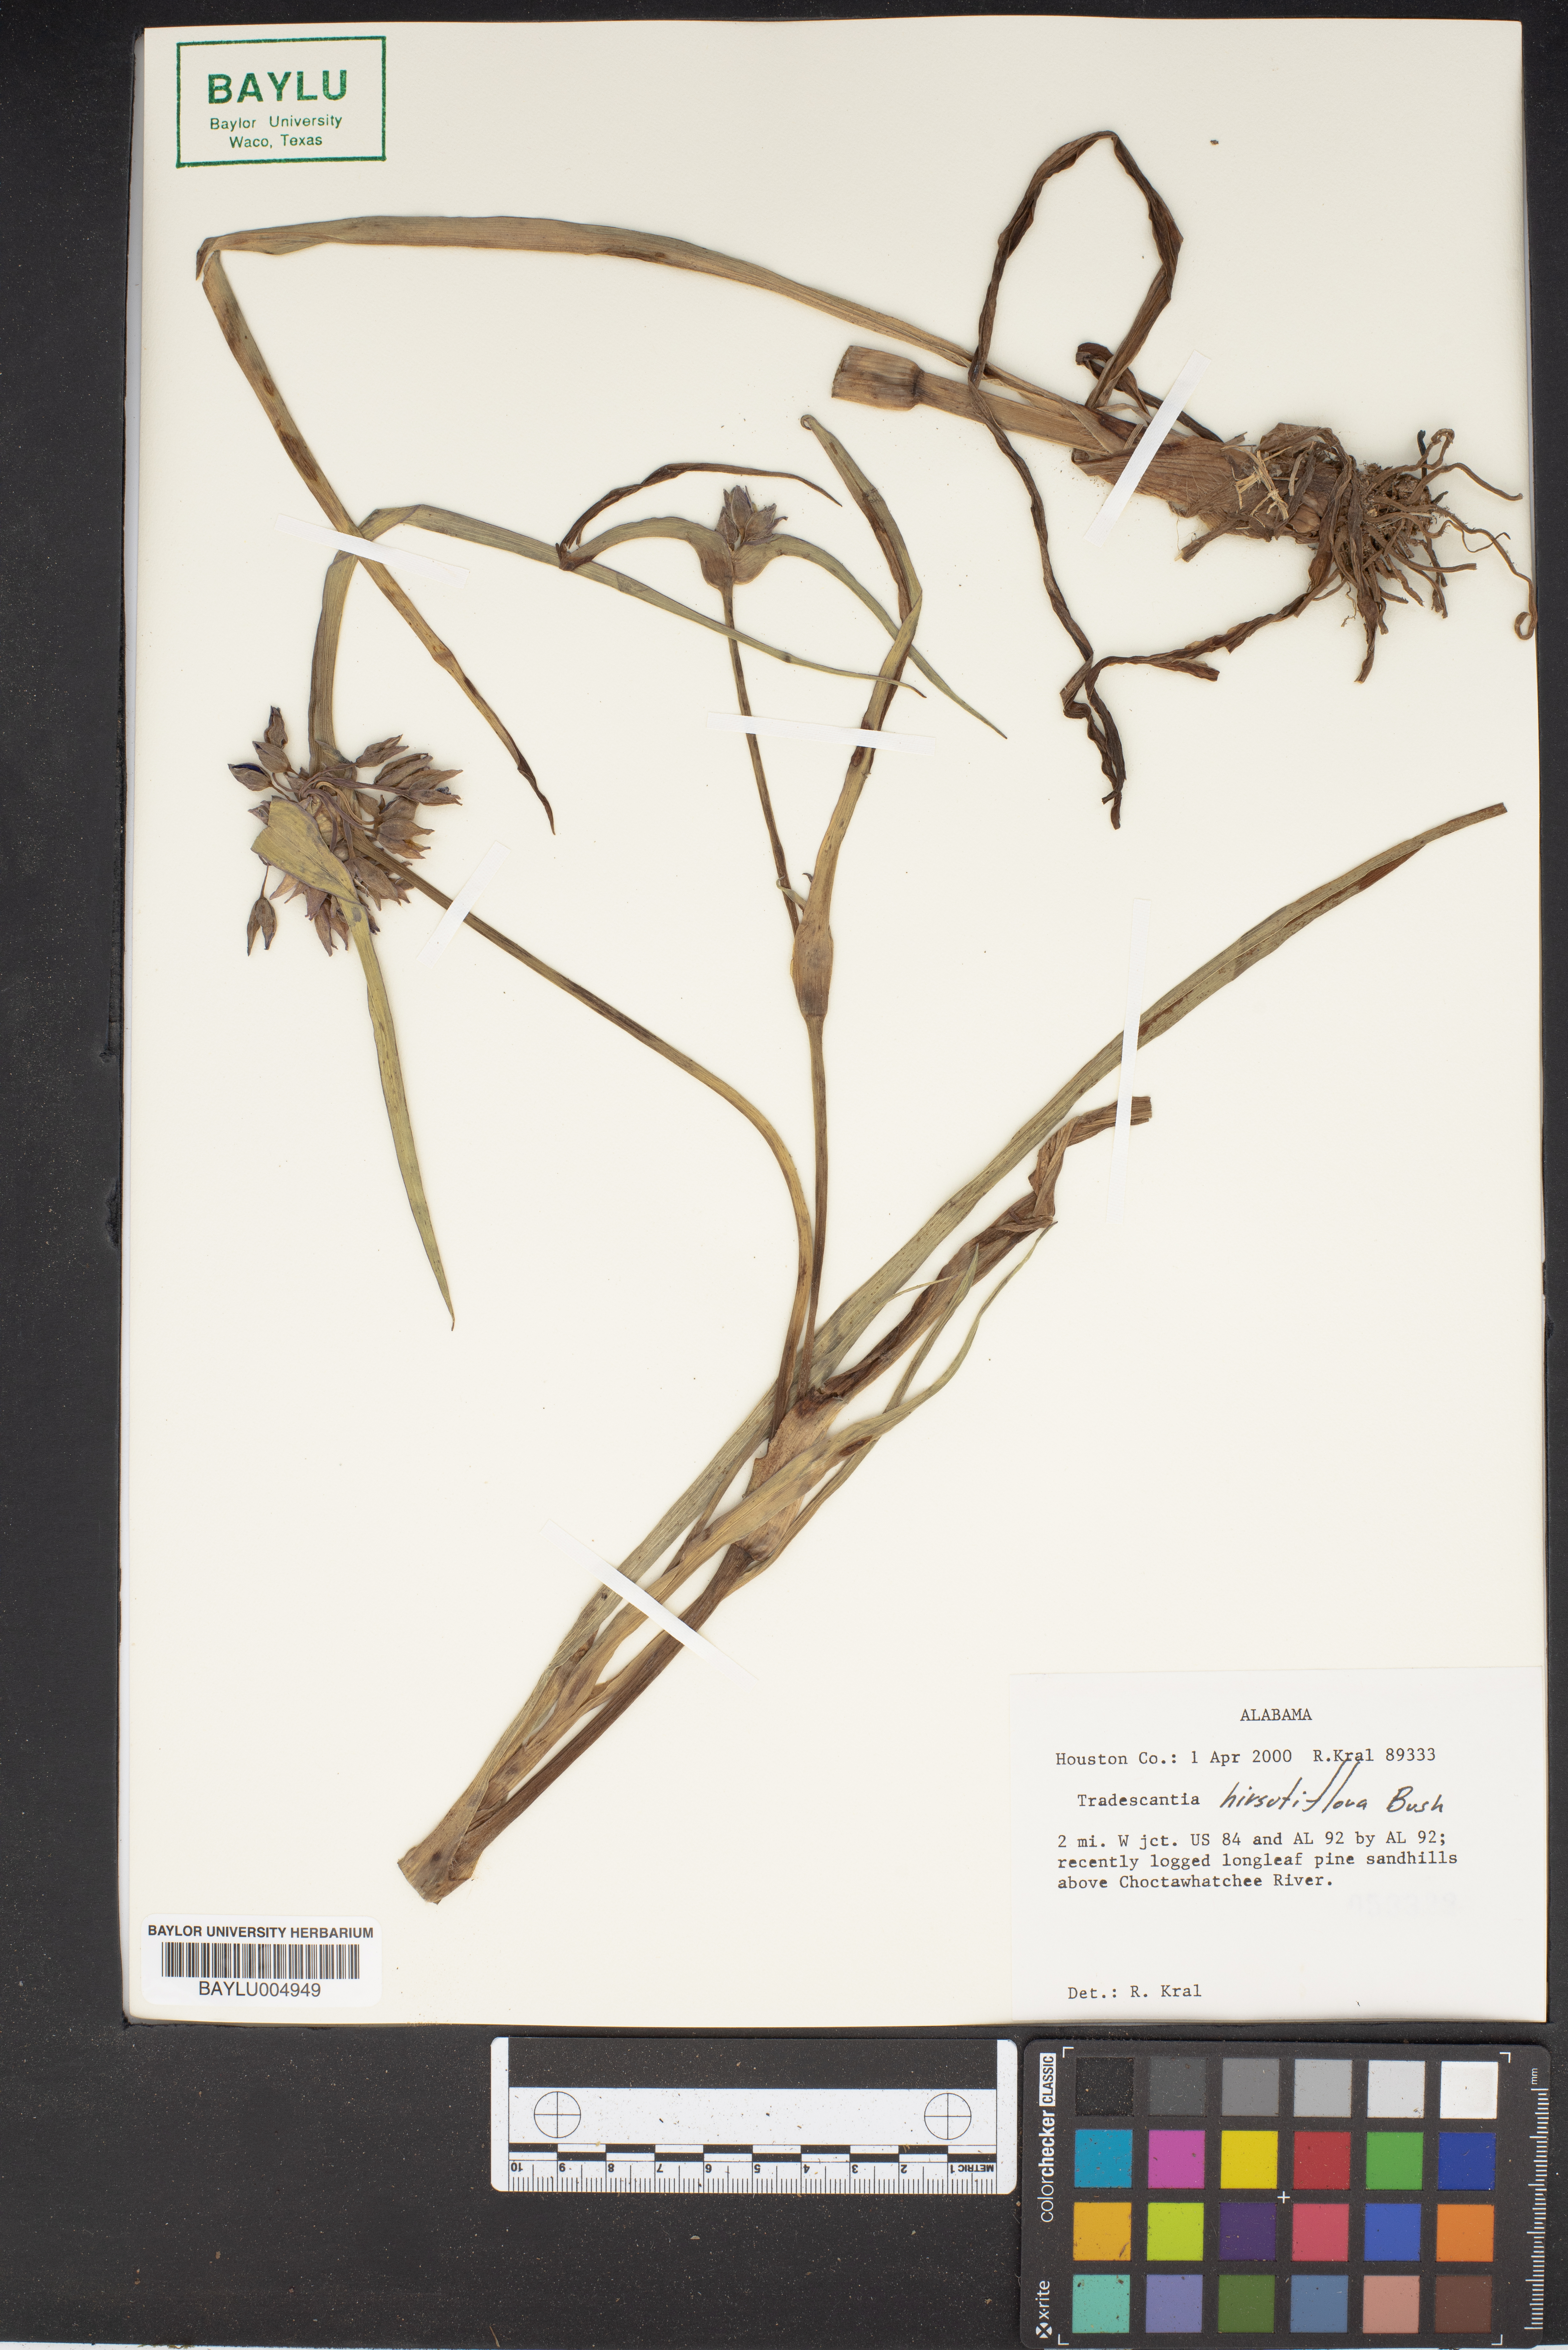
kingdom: Plantae
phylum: Tracheophyta
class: Liliopsida
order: Commelinales
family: Commelinaceae
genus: Tradescantia
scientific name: Tradescantia hirsutiflora
